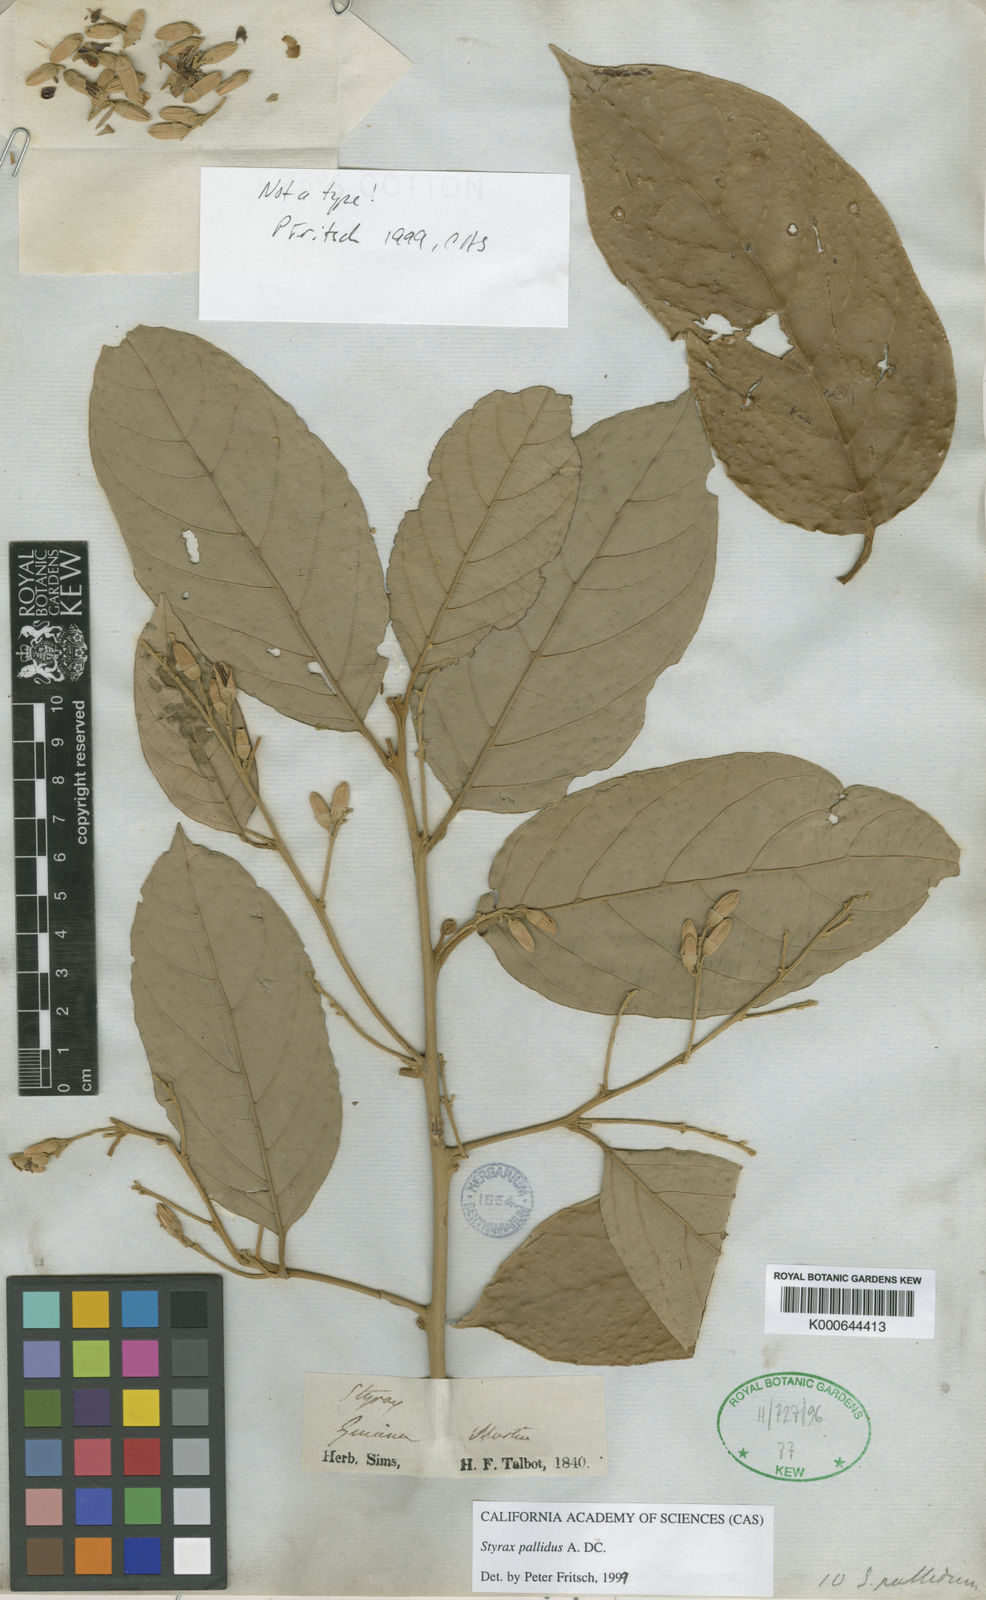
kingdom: Plantae
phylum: Tracheophyta
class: Magnoliopsida
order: Ericales
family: Styracaceae
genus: Styrax
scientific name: Styrax pallidus
